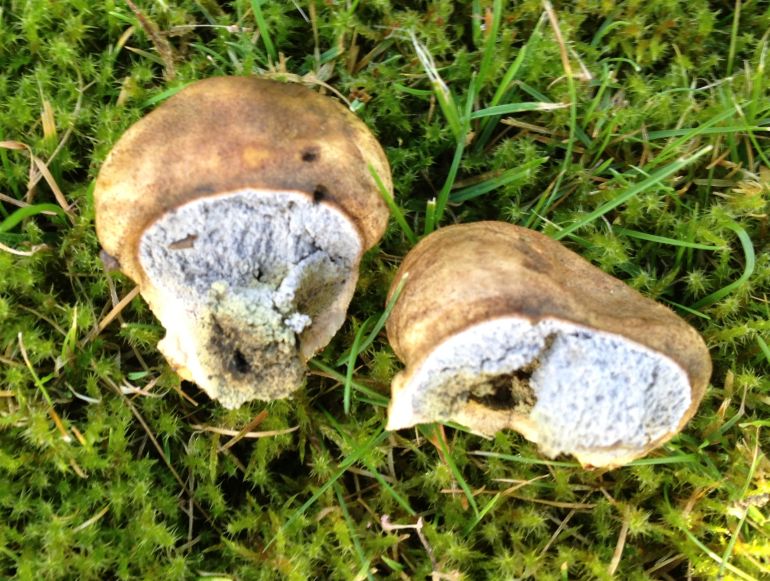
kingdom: Fungi
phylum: Basidiomycota
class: Agaricomycetes
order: Boletales
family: Sclerodermataceae
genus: Scleroderma
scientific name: Scleroderma bovista
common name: bovist-bruskbold
